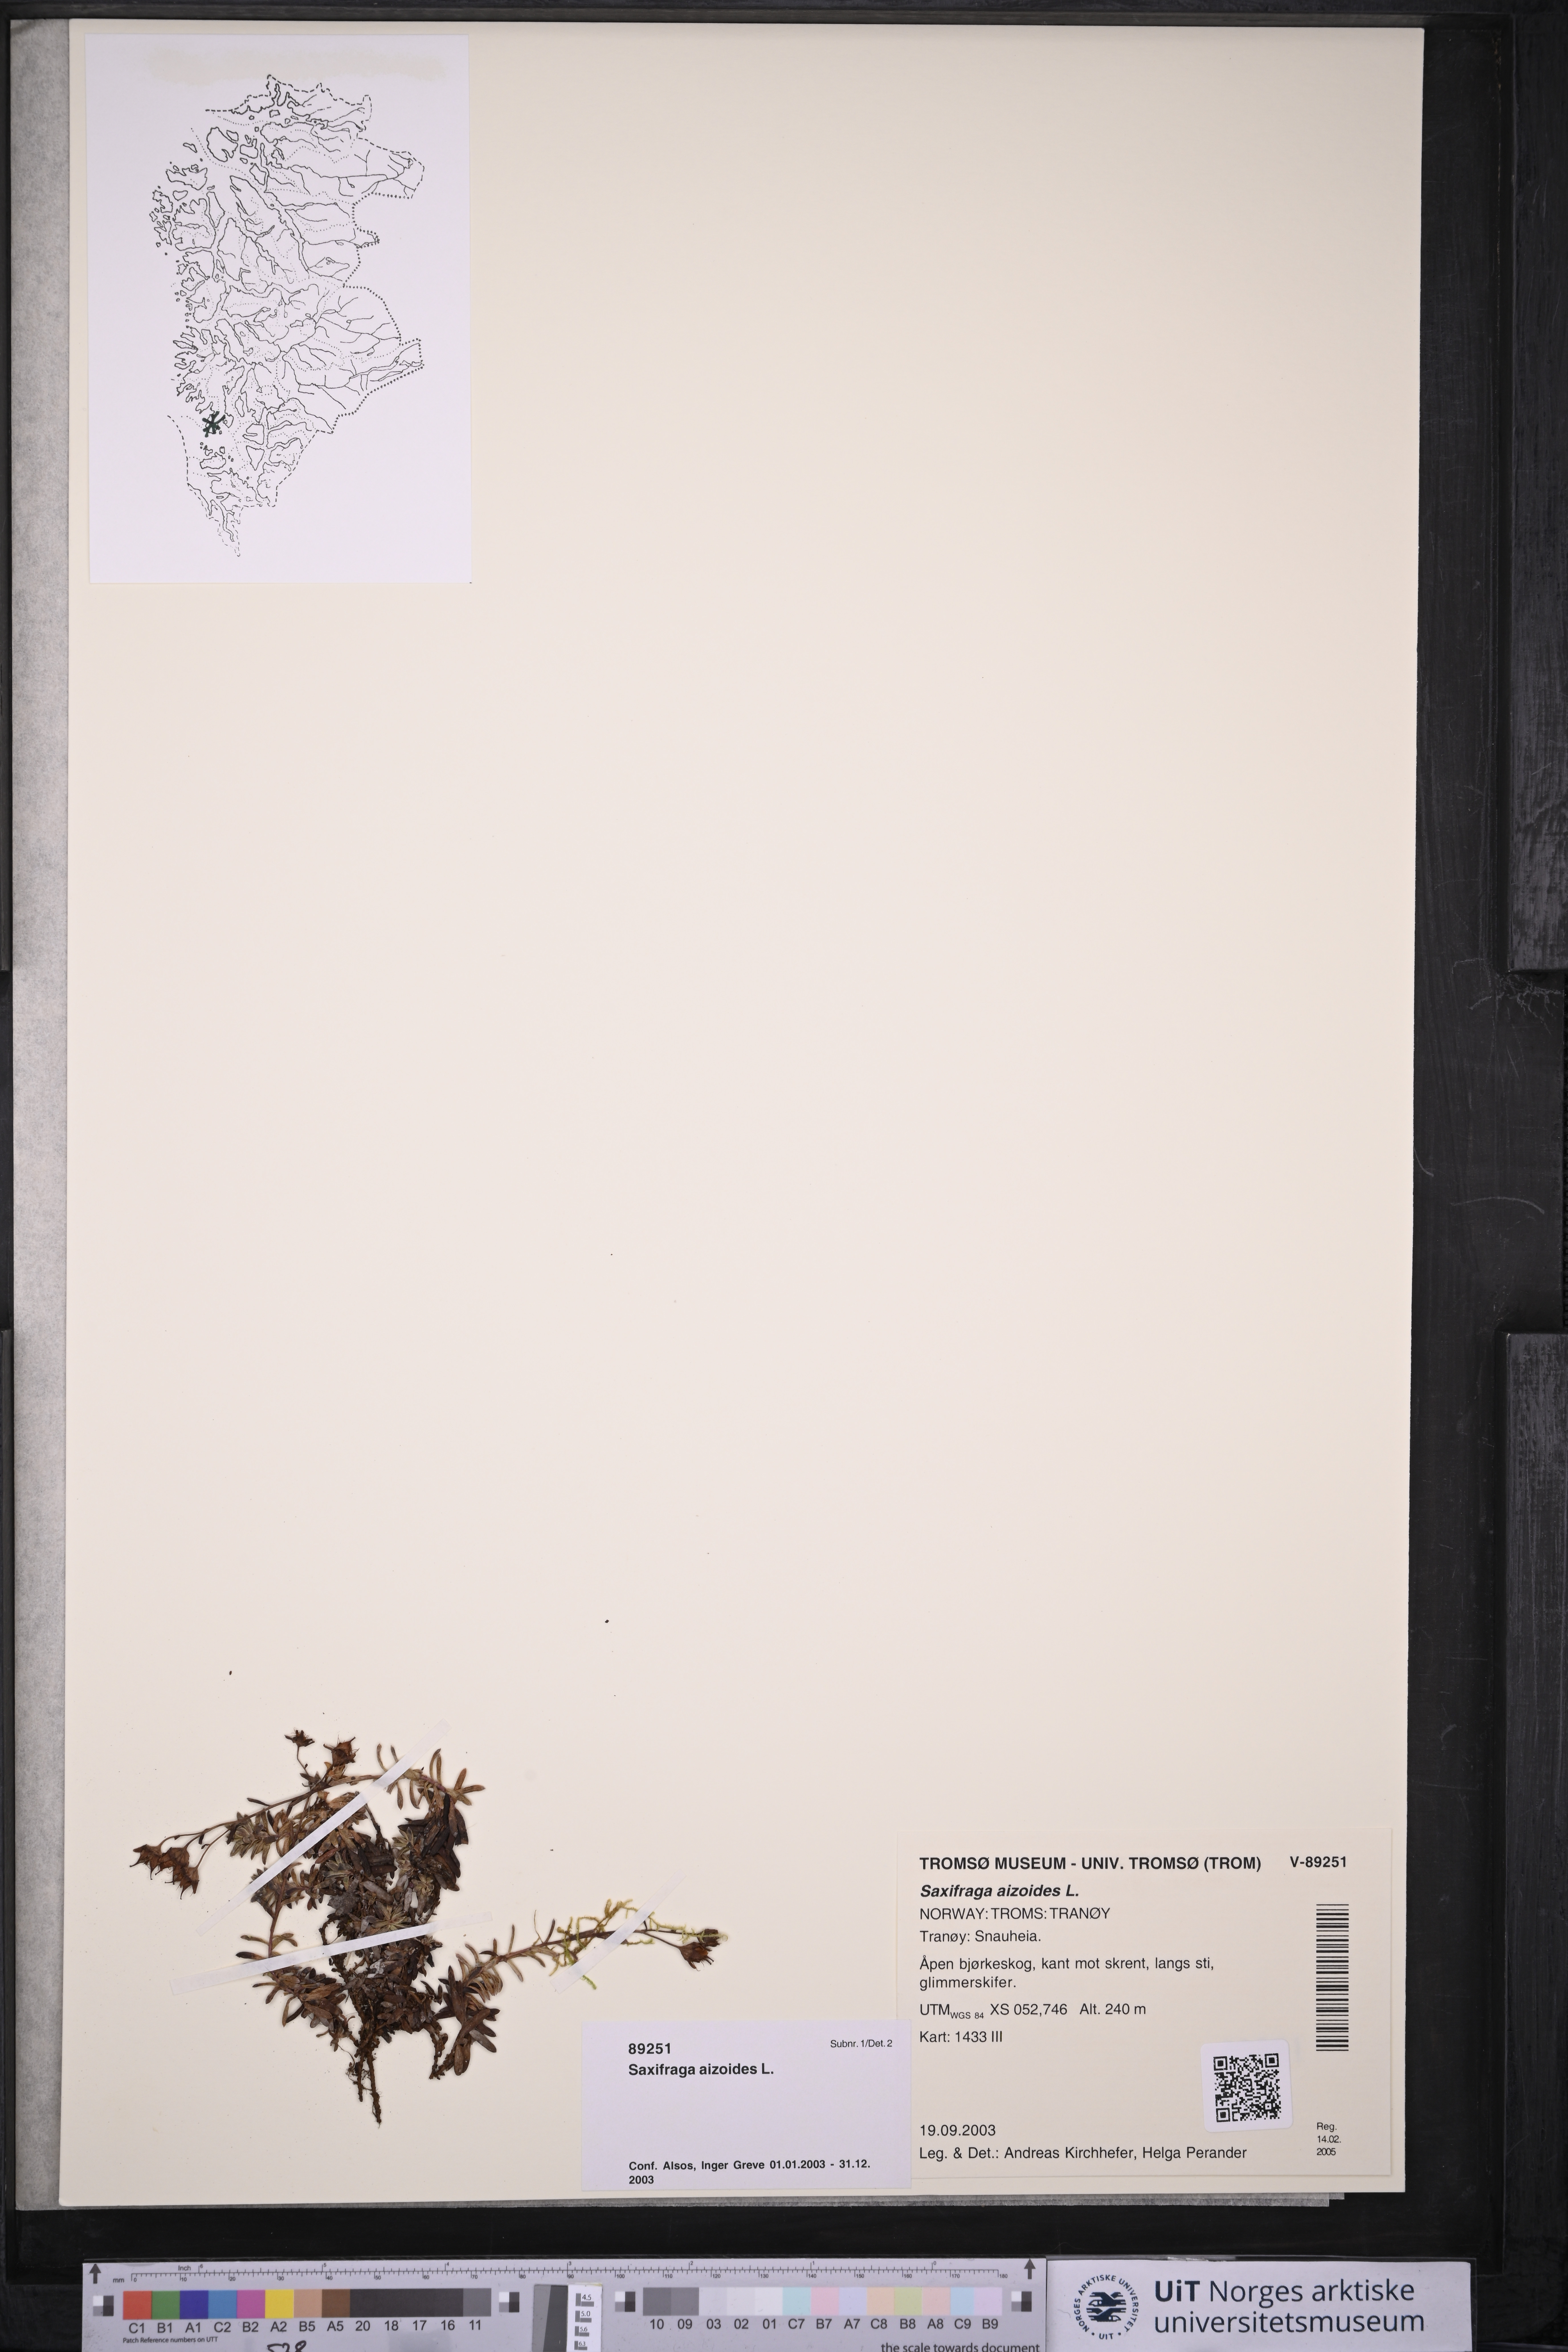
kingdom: Plantae
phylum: Tracheophyta
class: Magnoliopsida
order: Saxifragales
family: Saxifragaceae
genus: Saxifraga
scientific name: Saxifraga aizoides
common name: Yellow mountain saxifrage
